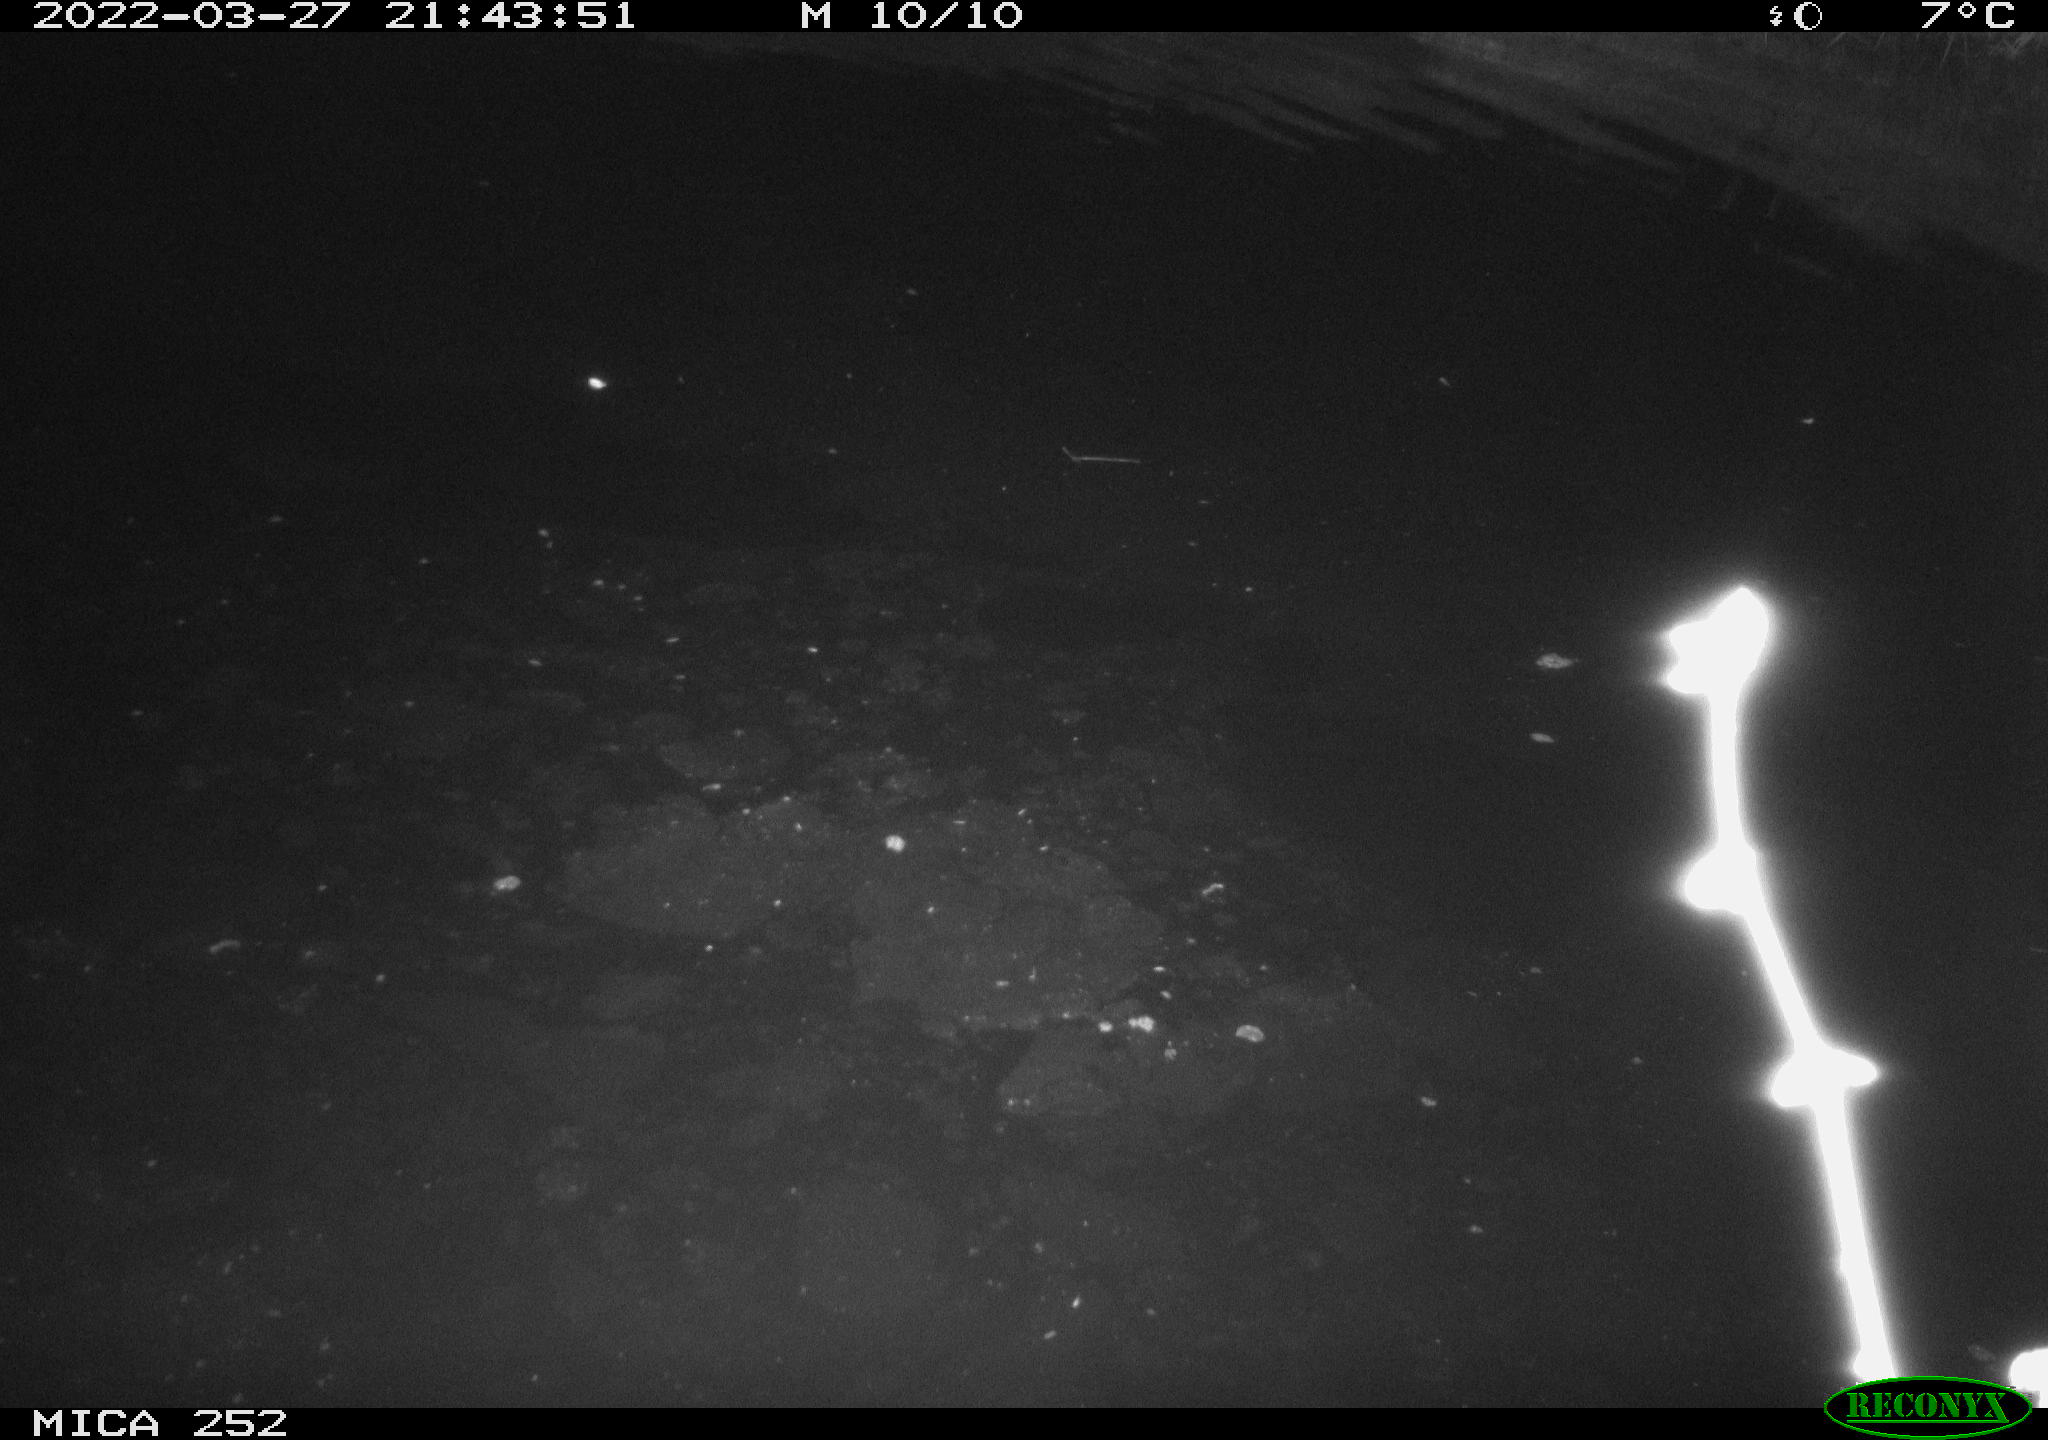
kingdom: Animalia
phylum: Chordata
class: Mammalia
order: Rodentia
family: Castoridae
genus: Castor
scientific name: Castor fiber
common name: Eurasian beaver
